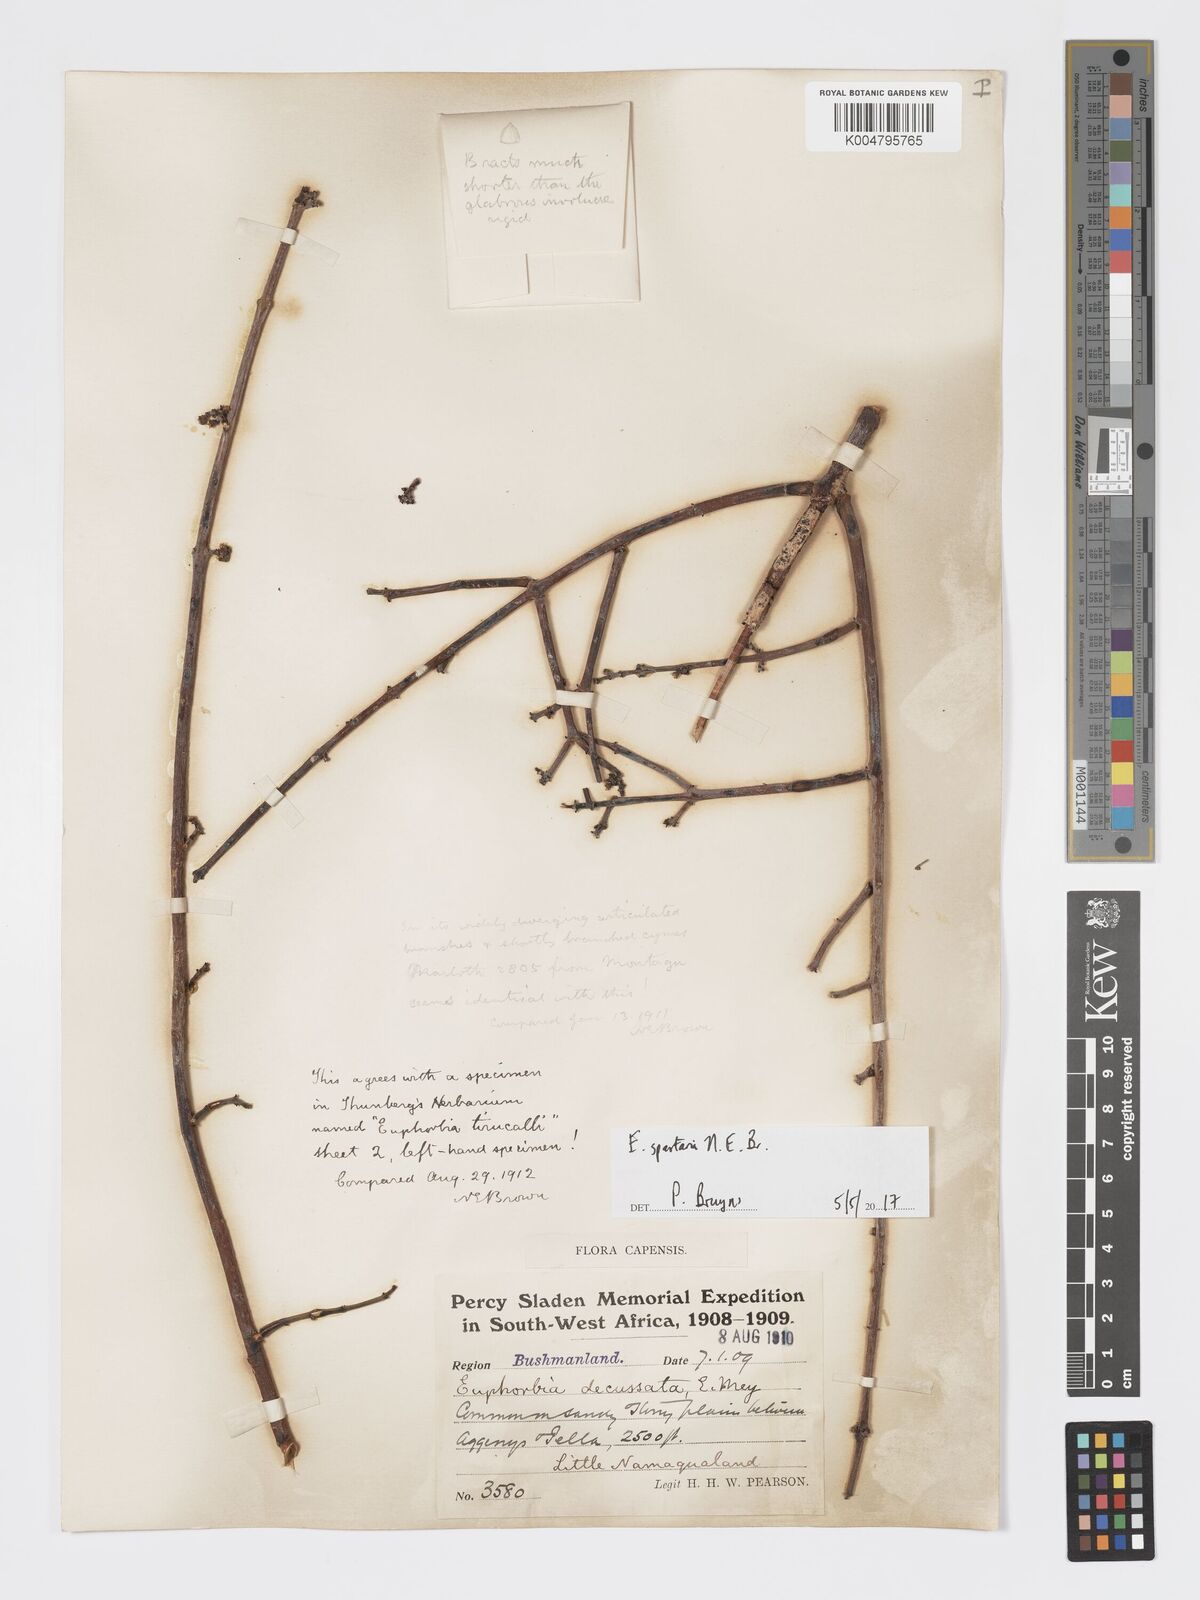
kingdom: Plantae
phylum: Tracheophyta
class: Magnoliopsida
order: Malpighiales
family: Euphorbiaceae
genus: Euphorbia
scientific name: Euphorbia spartaria
